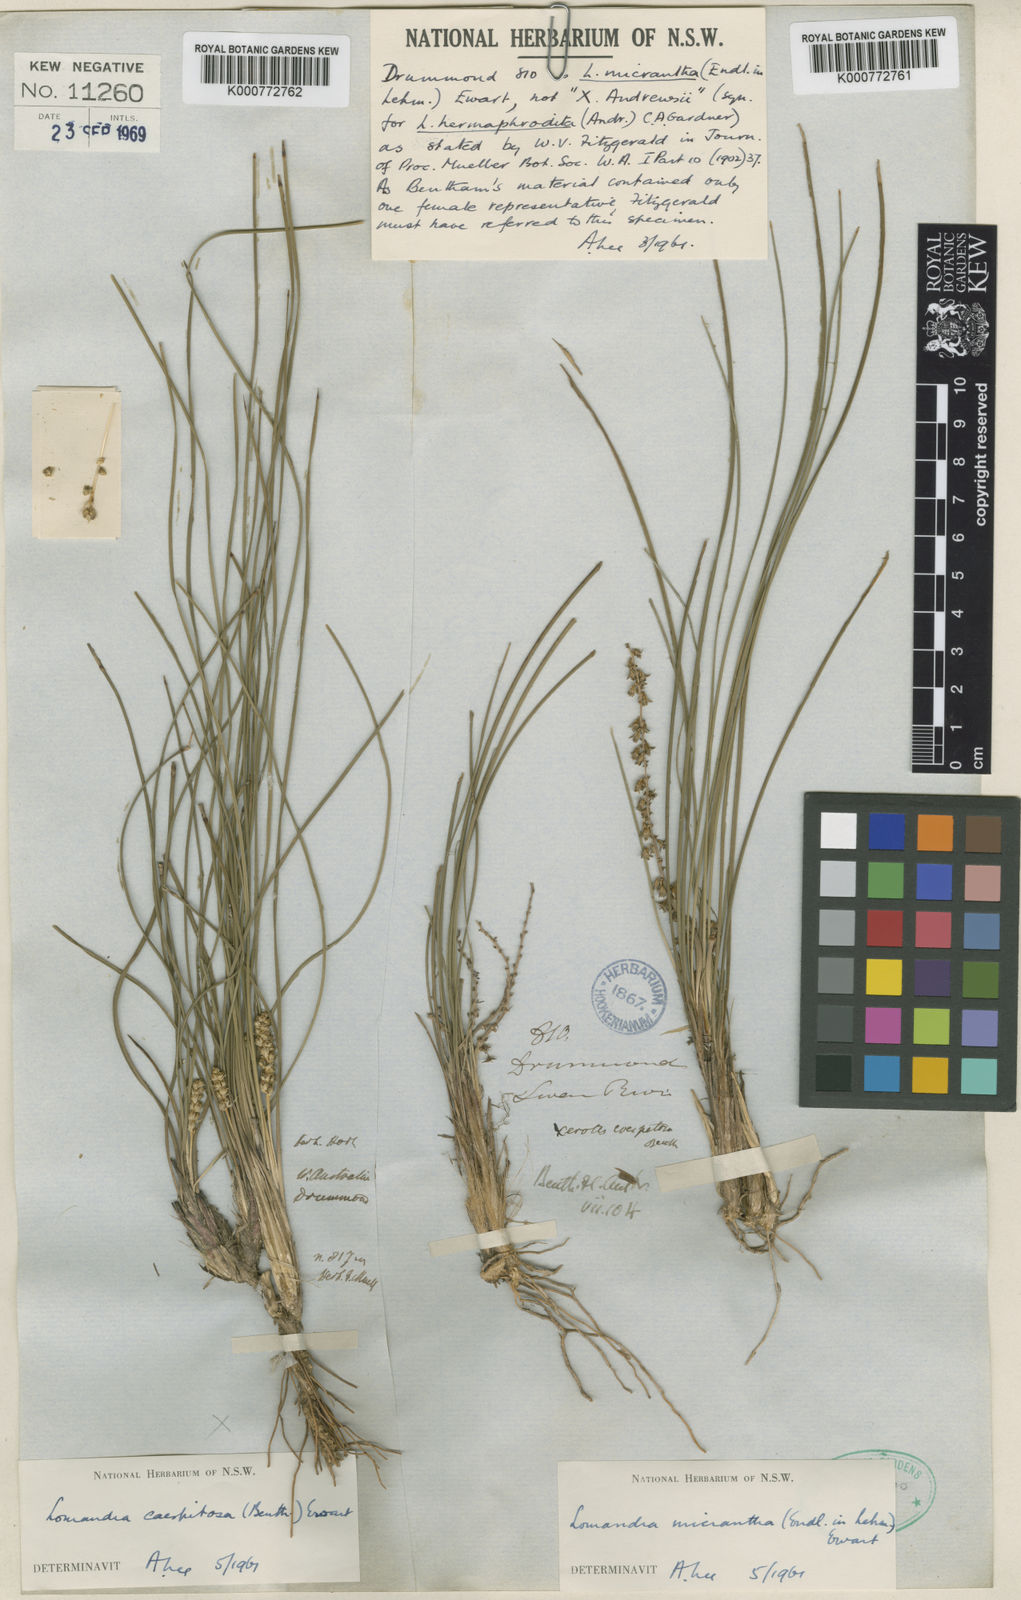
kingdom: Plantae
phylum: Tracheophyta
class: Liliopsida
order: Asparagales
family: Asparagaceae
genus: Lomandra
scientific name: Lomandra caespitosa
